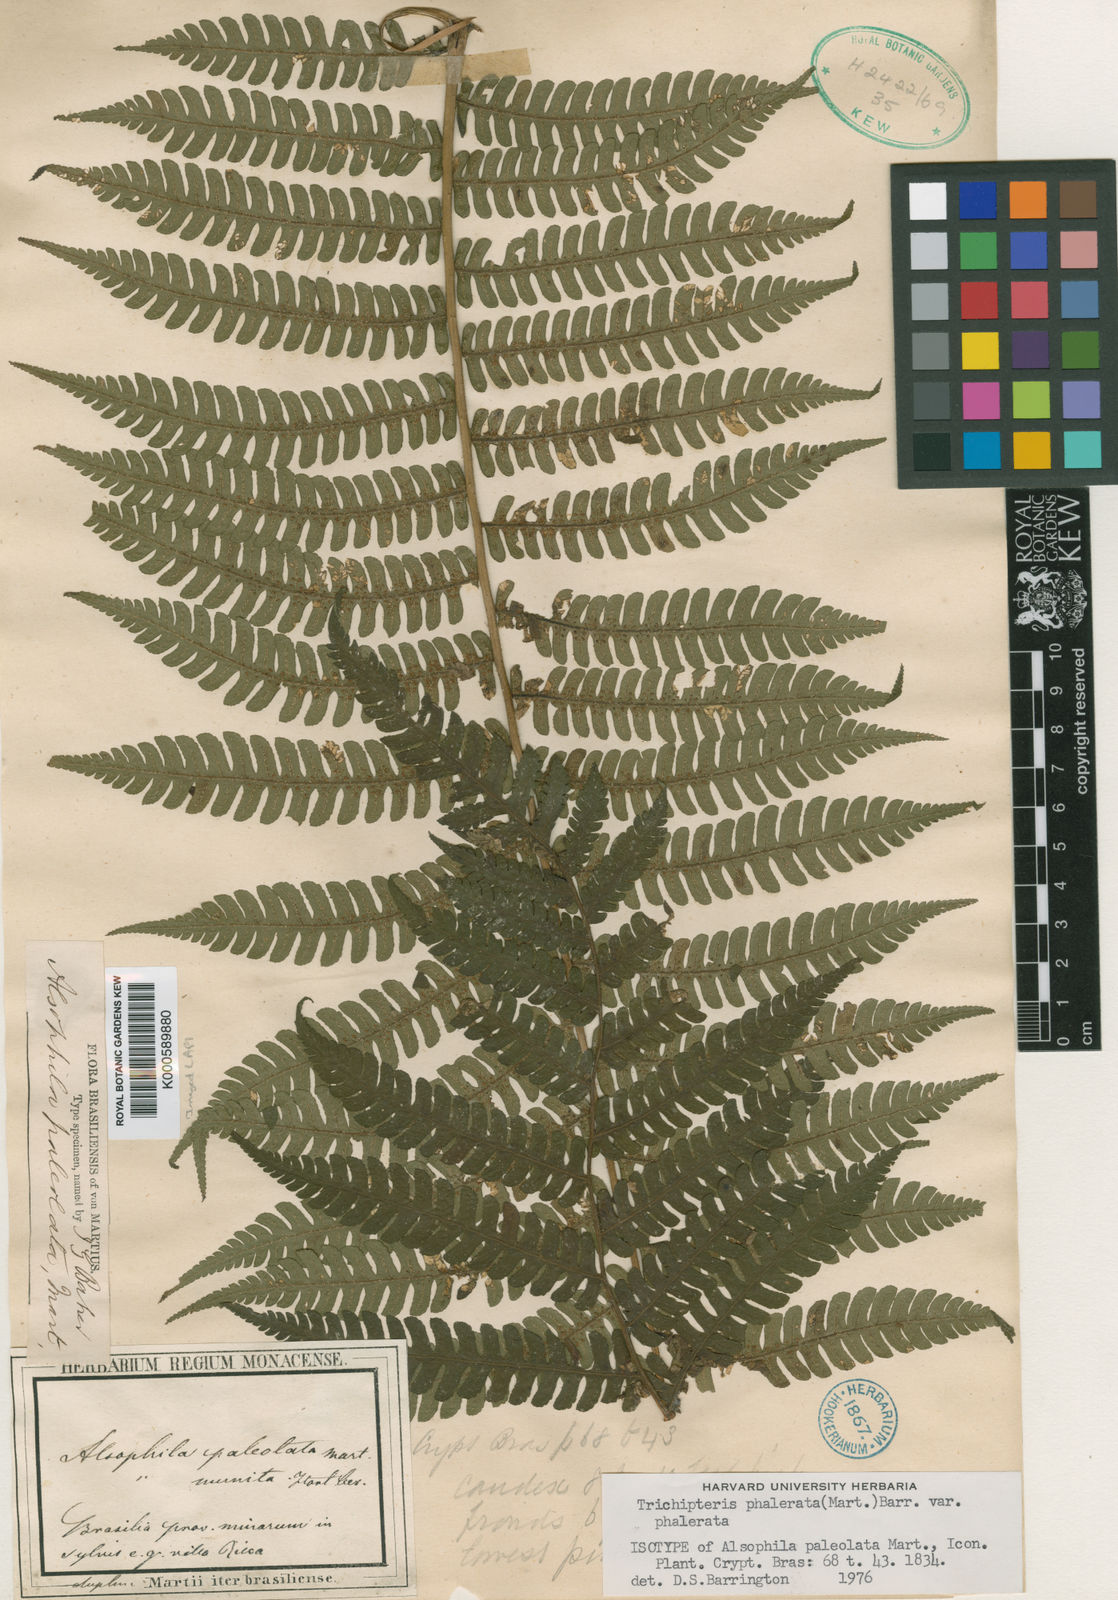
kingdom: Plantae
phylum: Tracheophyta
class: Polypodiopsida
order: Cyatheales
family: Cyatheaceae
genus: Cyathea
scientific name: Cyathea phalerata
